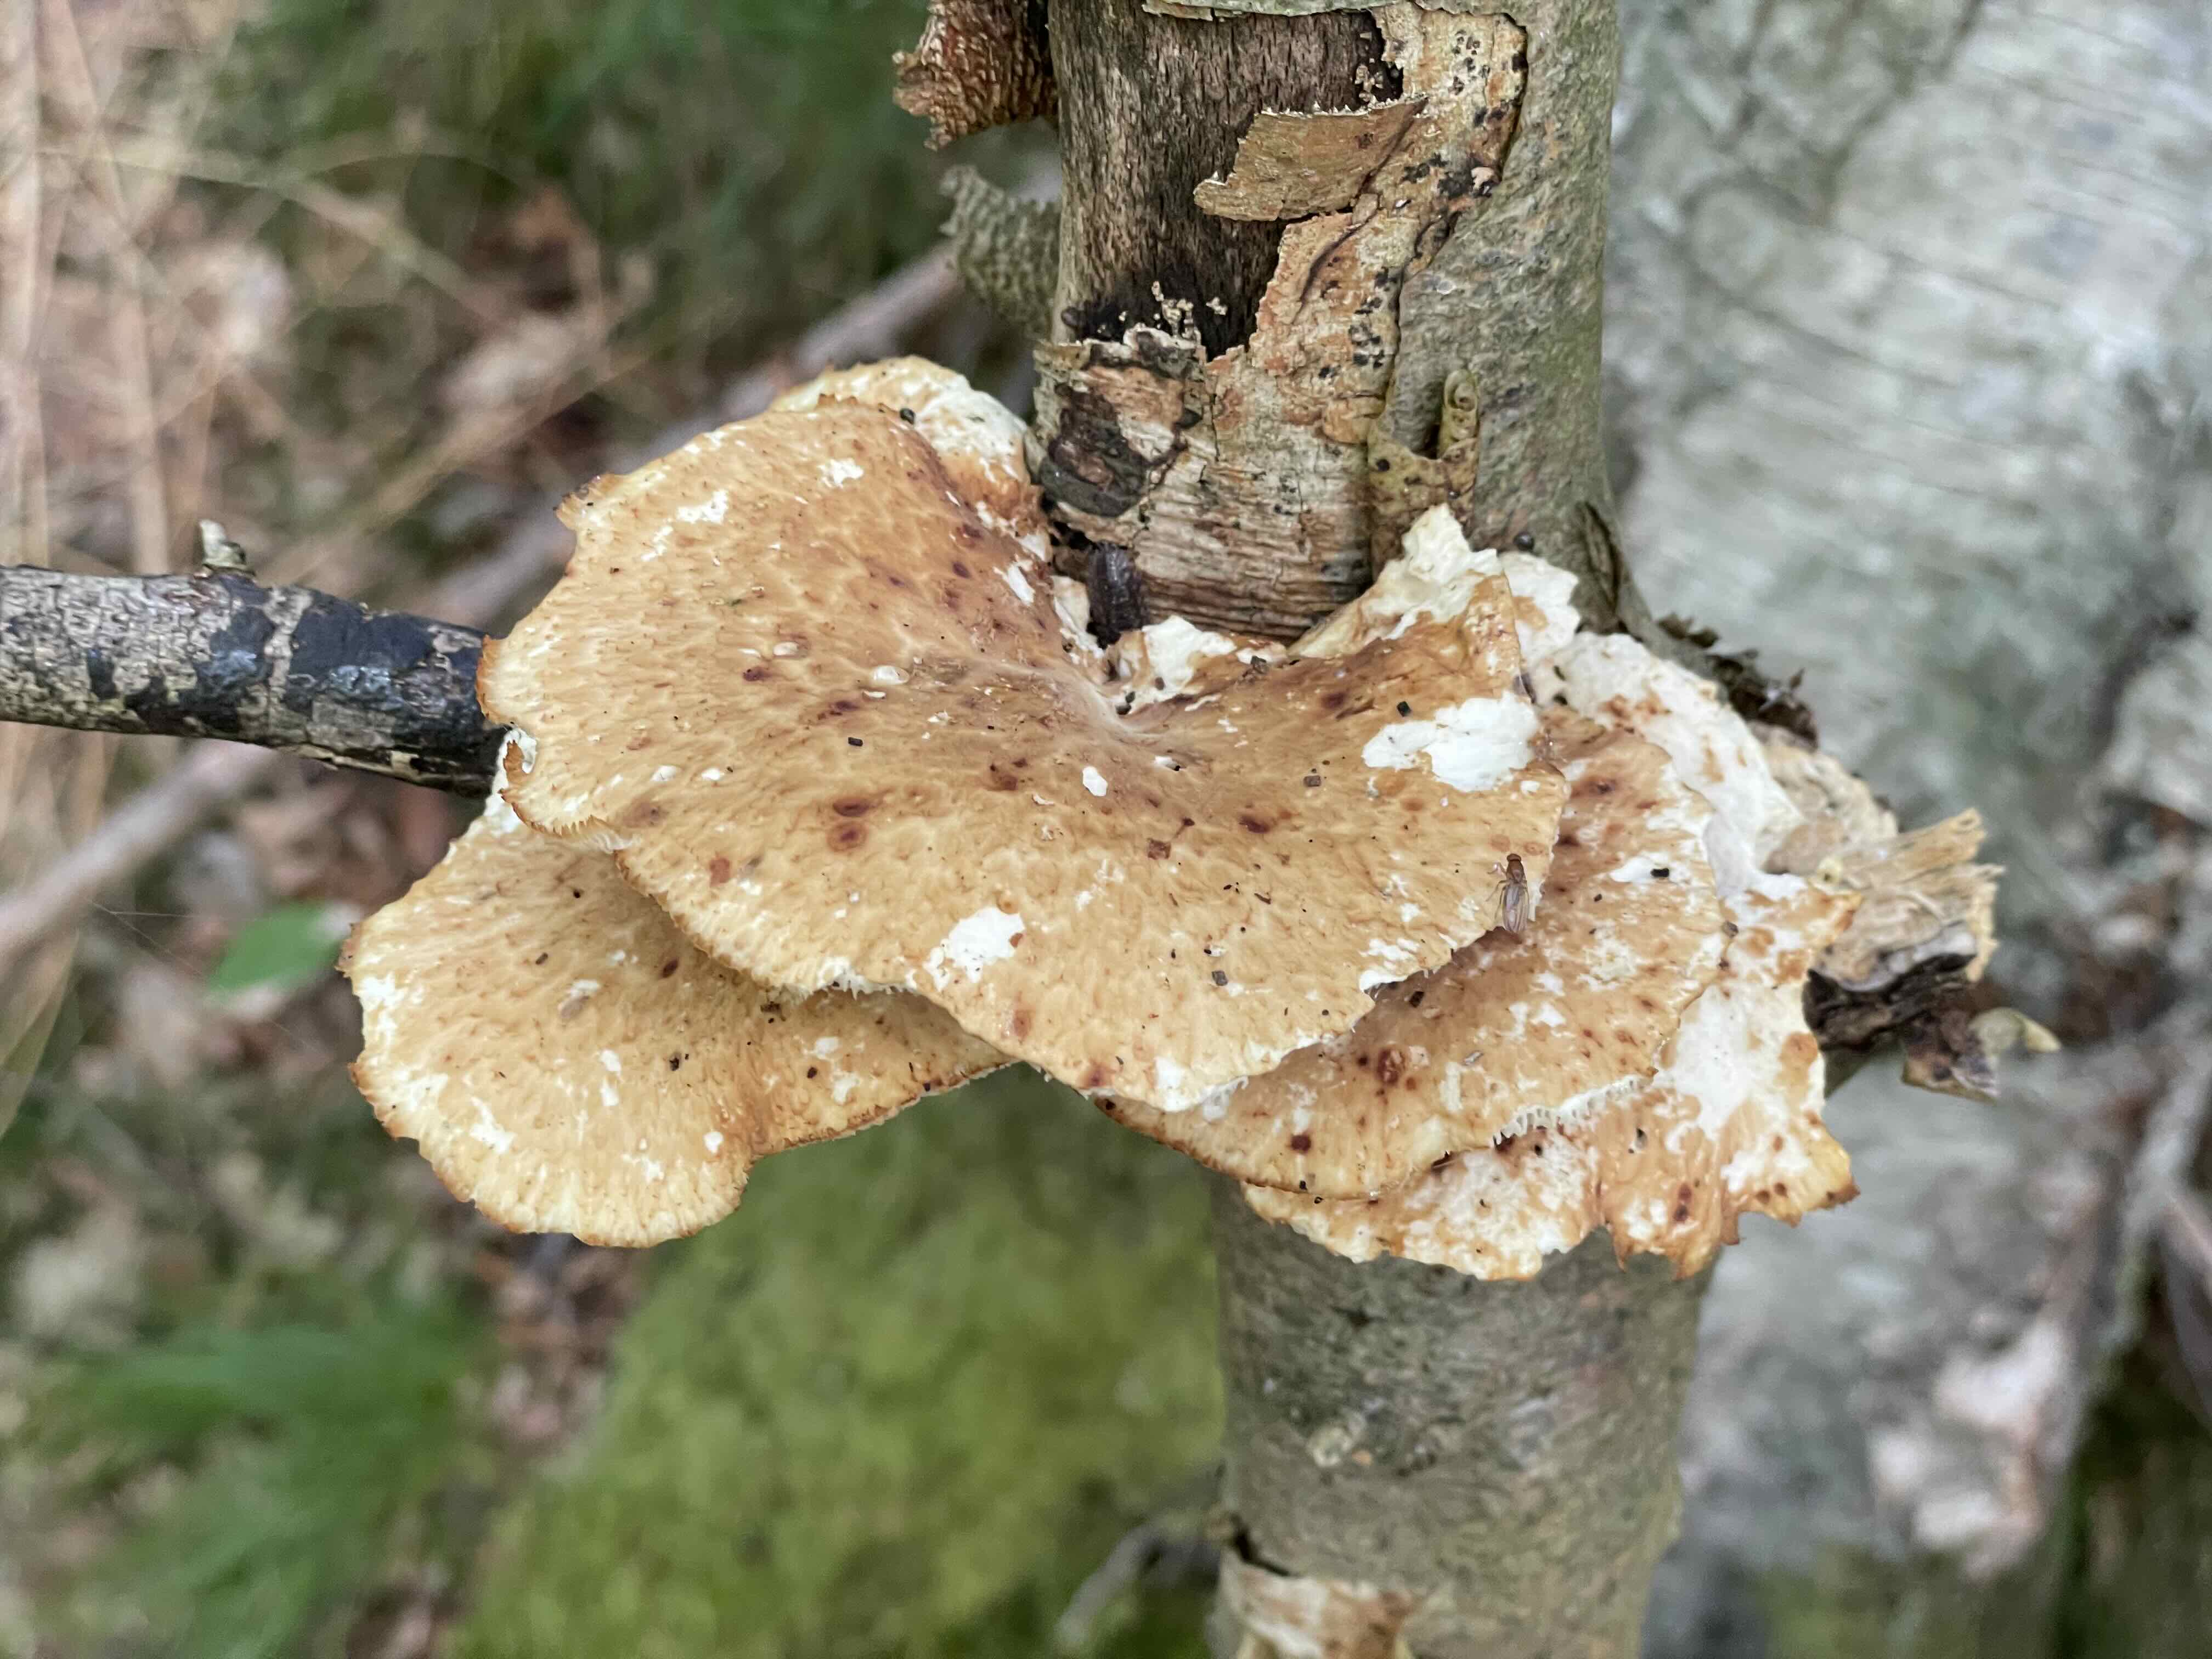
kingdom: Fungi
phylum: Basidiomycota
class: Agaricomycetes
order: Polyporales
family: Polyporaceae
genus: Polyporus
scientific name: Polyporus tuberaster
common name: knoldet stilkporesvamp
